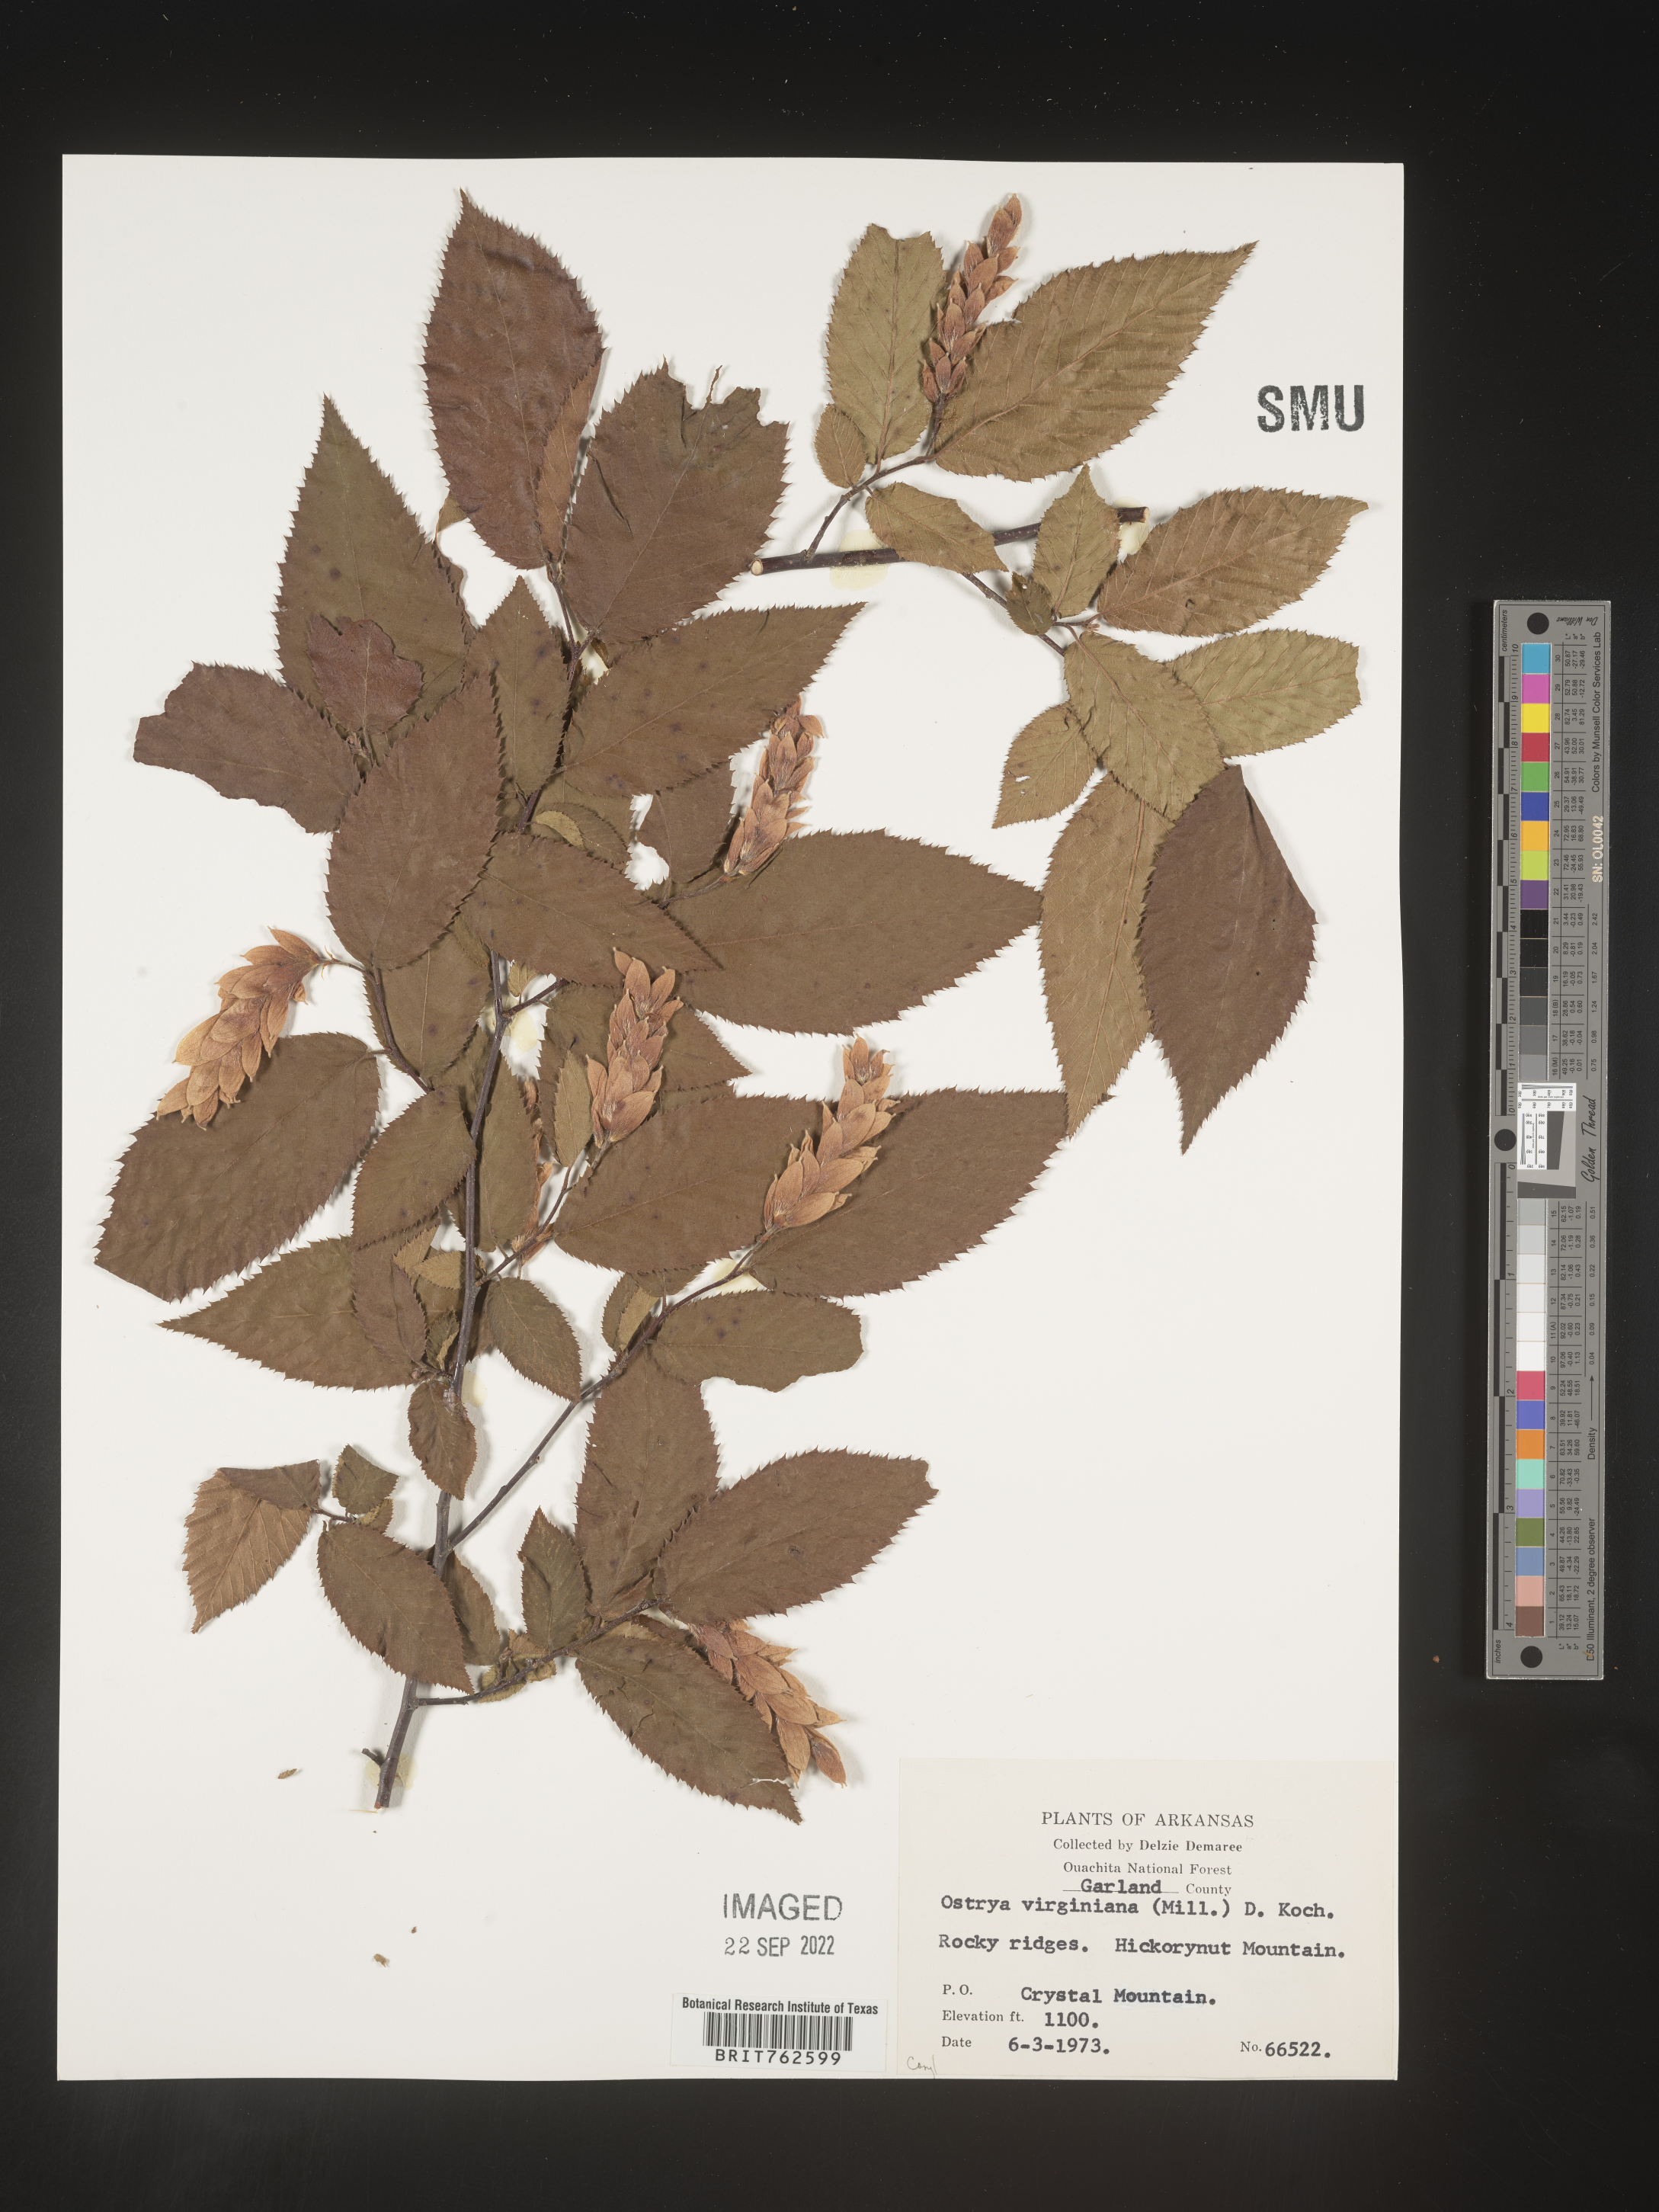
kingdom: Plantae
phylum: Tracheophyta
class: Magnoliopsida
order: Fagales
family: Betulaceae
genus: Ostrya
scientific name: Ostrya virginiana
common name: Ironwood
